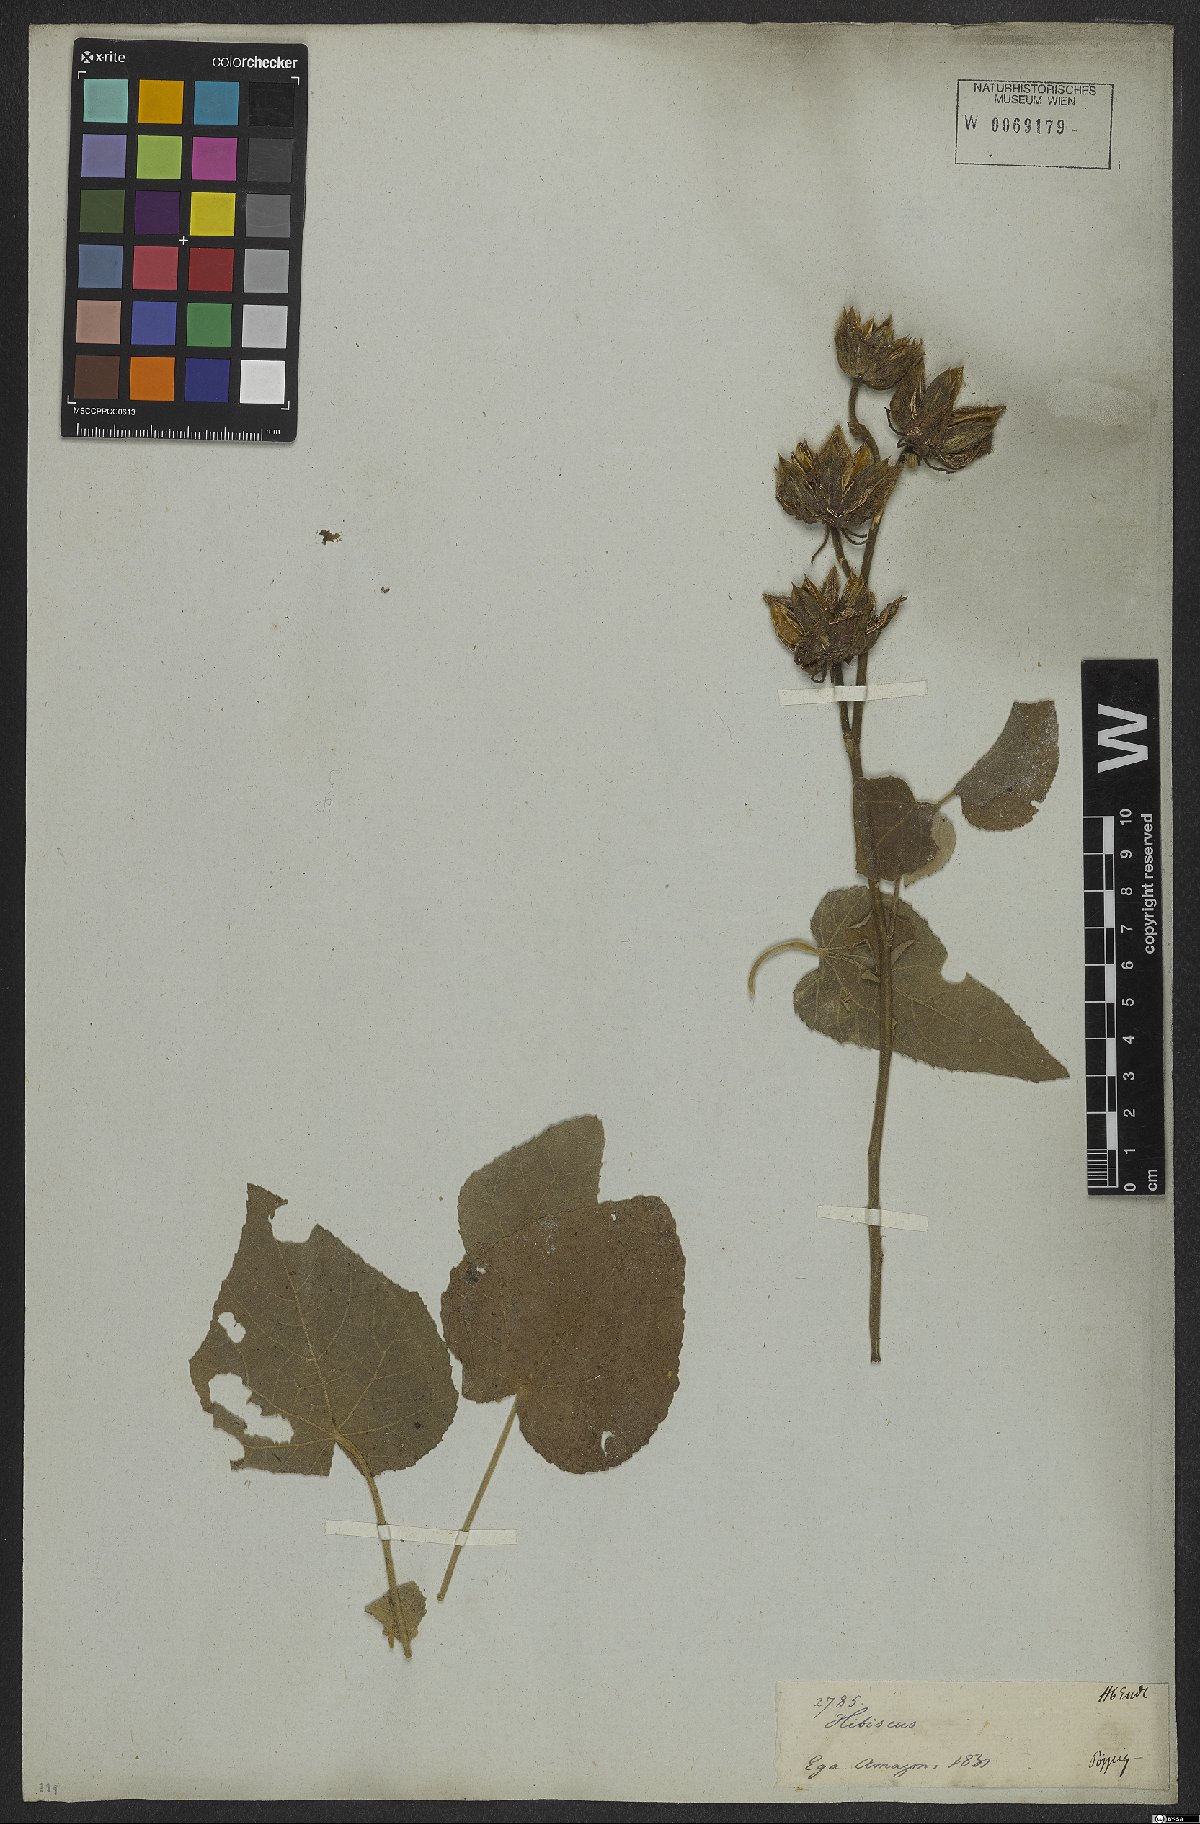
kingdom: Plantae
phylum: Tracheophyta
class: Magnoliopsida
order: Malvales
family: Malvaceae
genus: Hibiscus
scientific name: Hibiscus furcellatus
